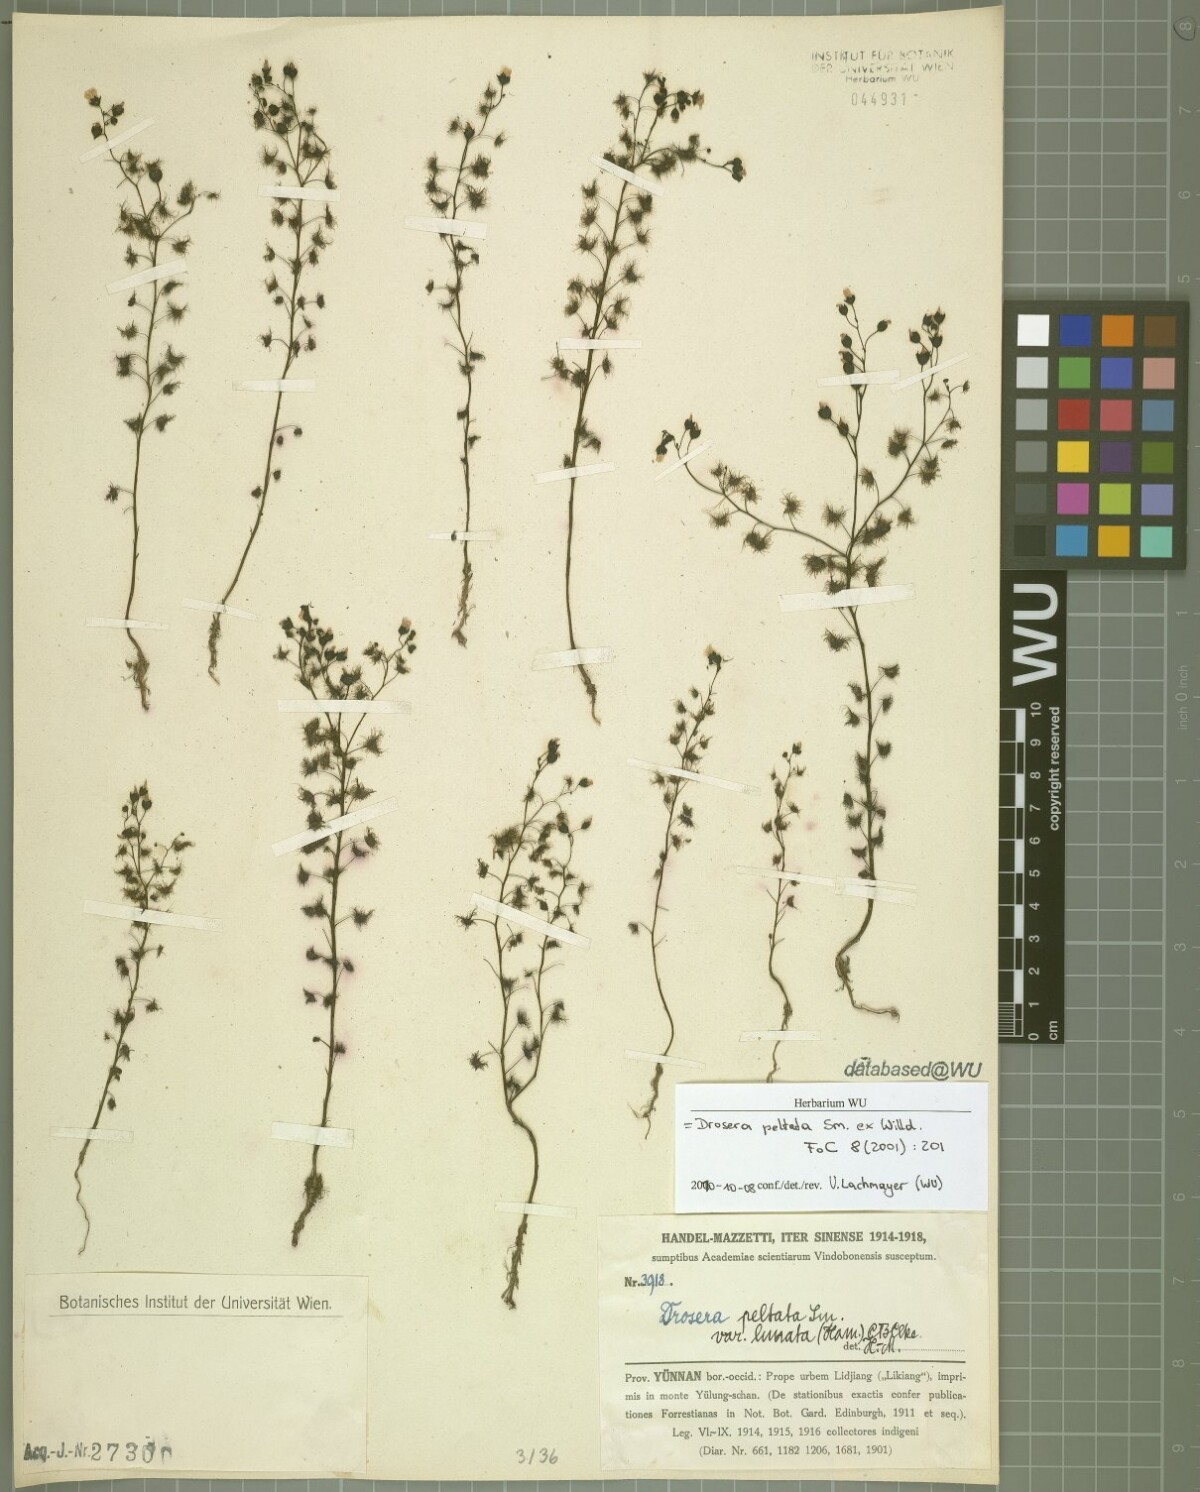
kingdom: Plantae
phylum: Tracheophyta
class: Magnoliopsida
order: Caryophyllales
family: Droseraceae
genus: Drosera
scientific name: Drosera peltata
